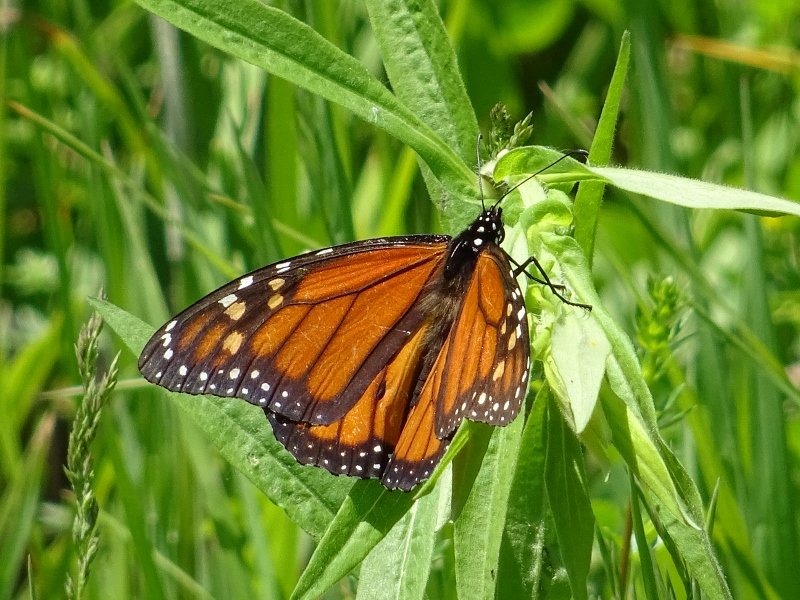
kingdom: Animalia
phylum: Arthropoda
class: Insecta
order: Lepidoptera
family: Nymphalidae
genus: Danaus
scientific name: Danaus plexippus
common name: Monarch
